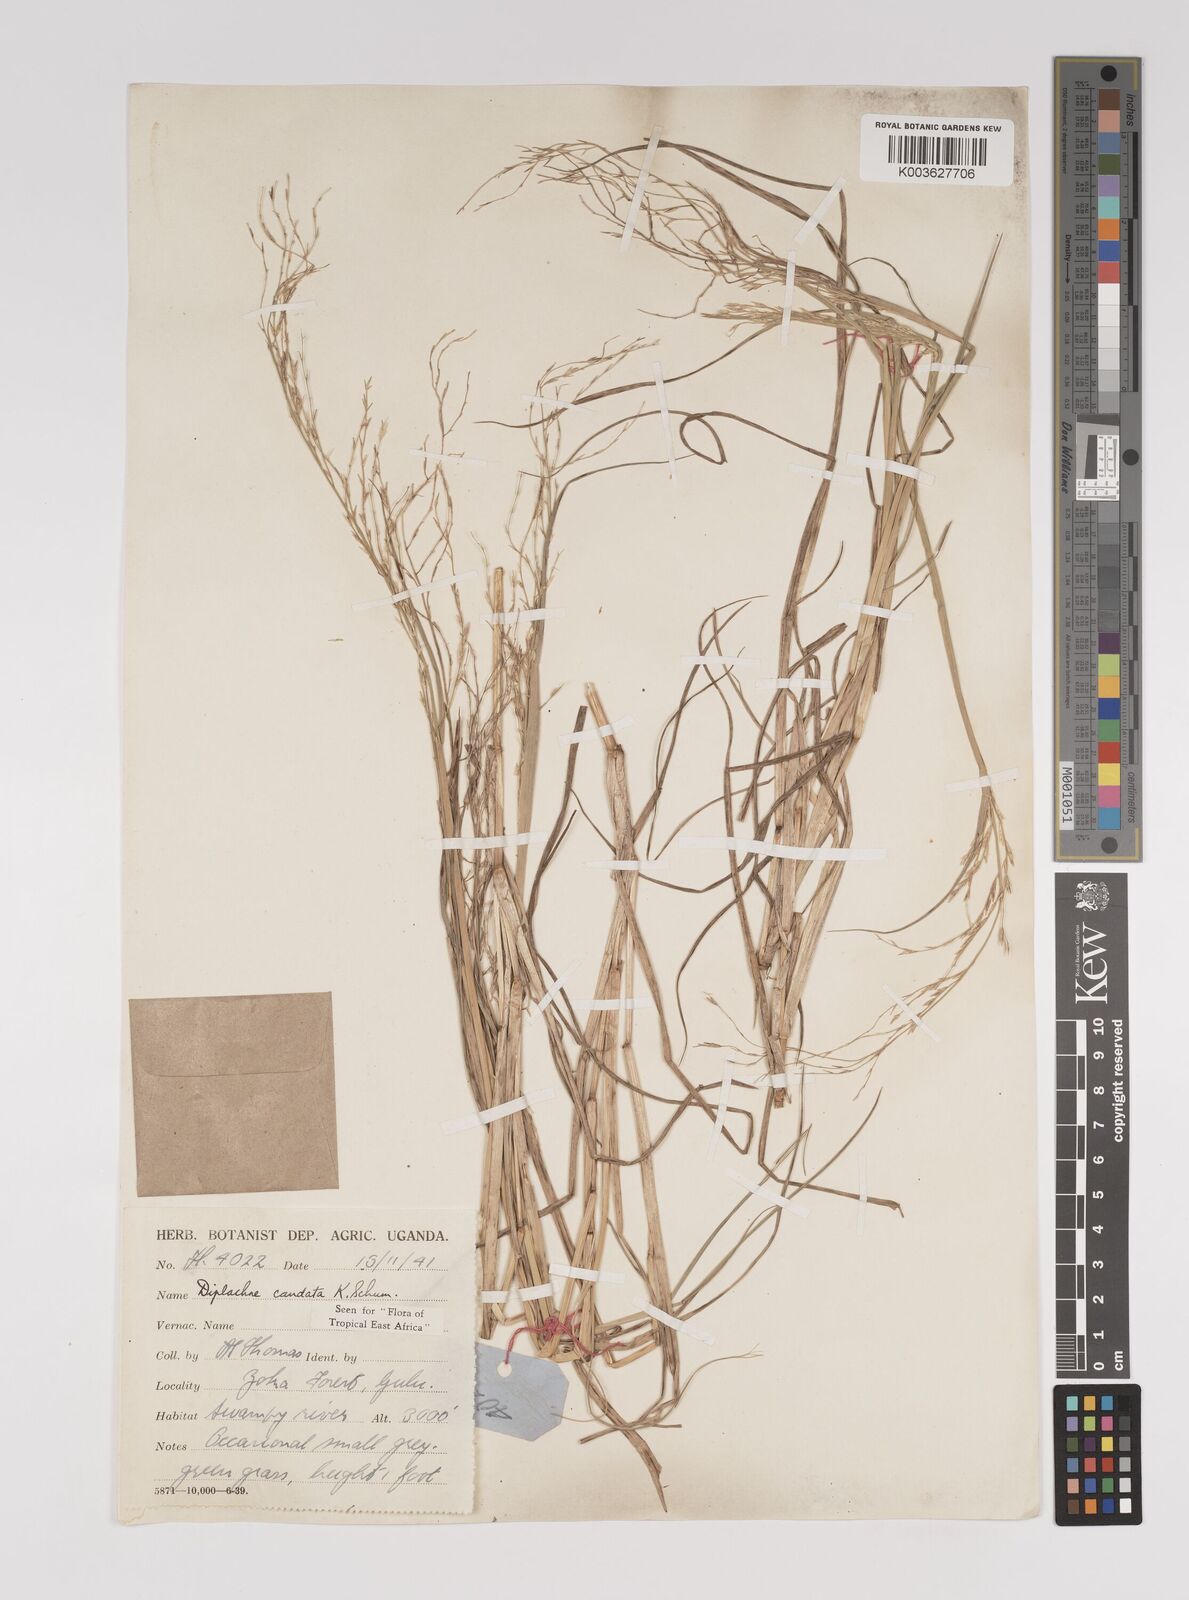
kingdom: Plantae
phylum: Tracheophyta
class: Liliopsida
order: Poales
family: Poaceae
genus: Leptochloa
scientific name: Leptochloa caudata
